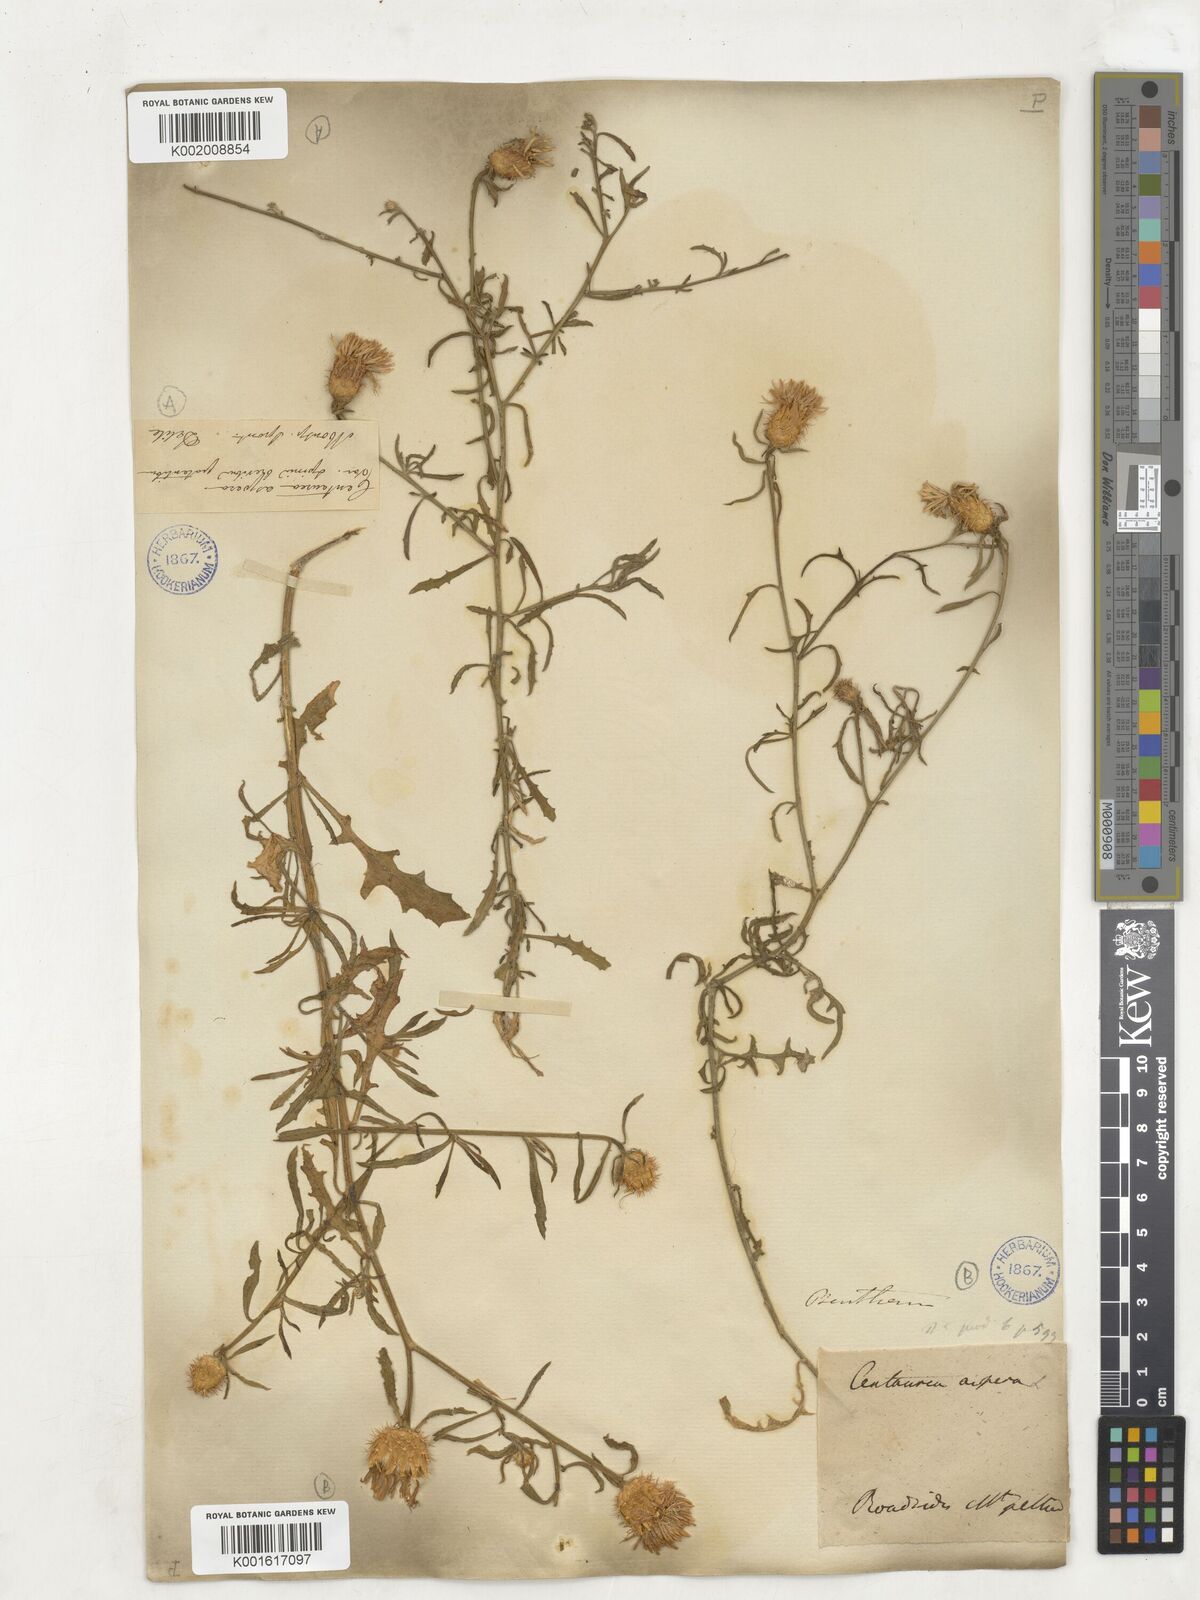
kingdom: Plantae
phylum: Tracheophyta
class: Magnoliopsida
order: Asterales
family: Asteraceae
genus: Centaurea
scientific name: Centaurea aspera
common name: Rough star-thistle
